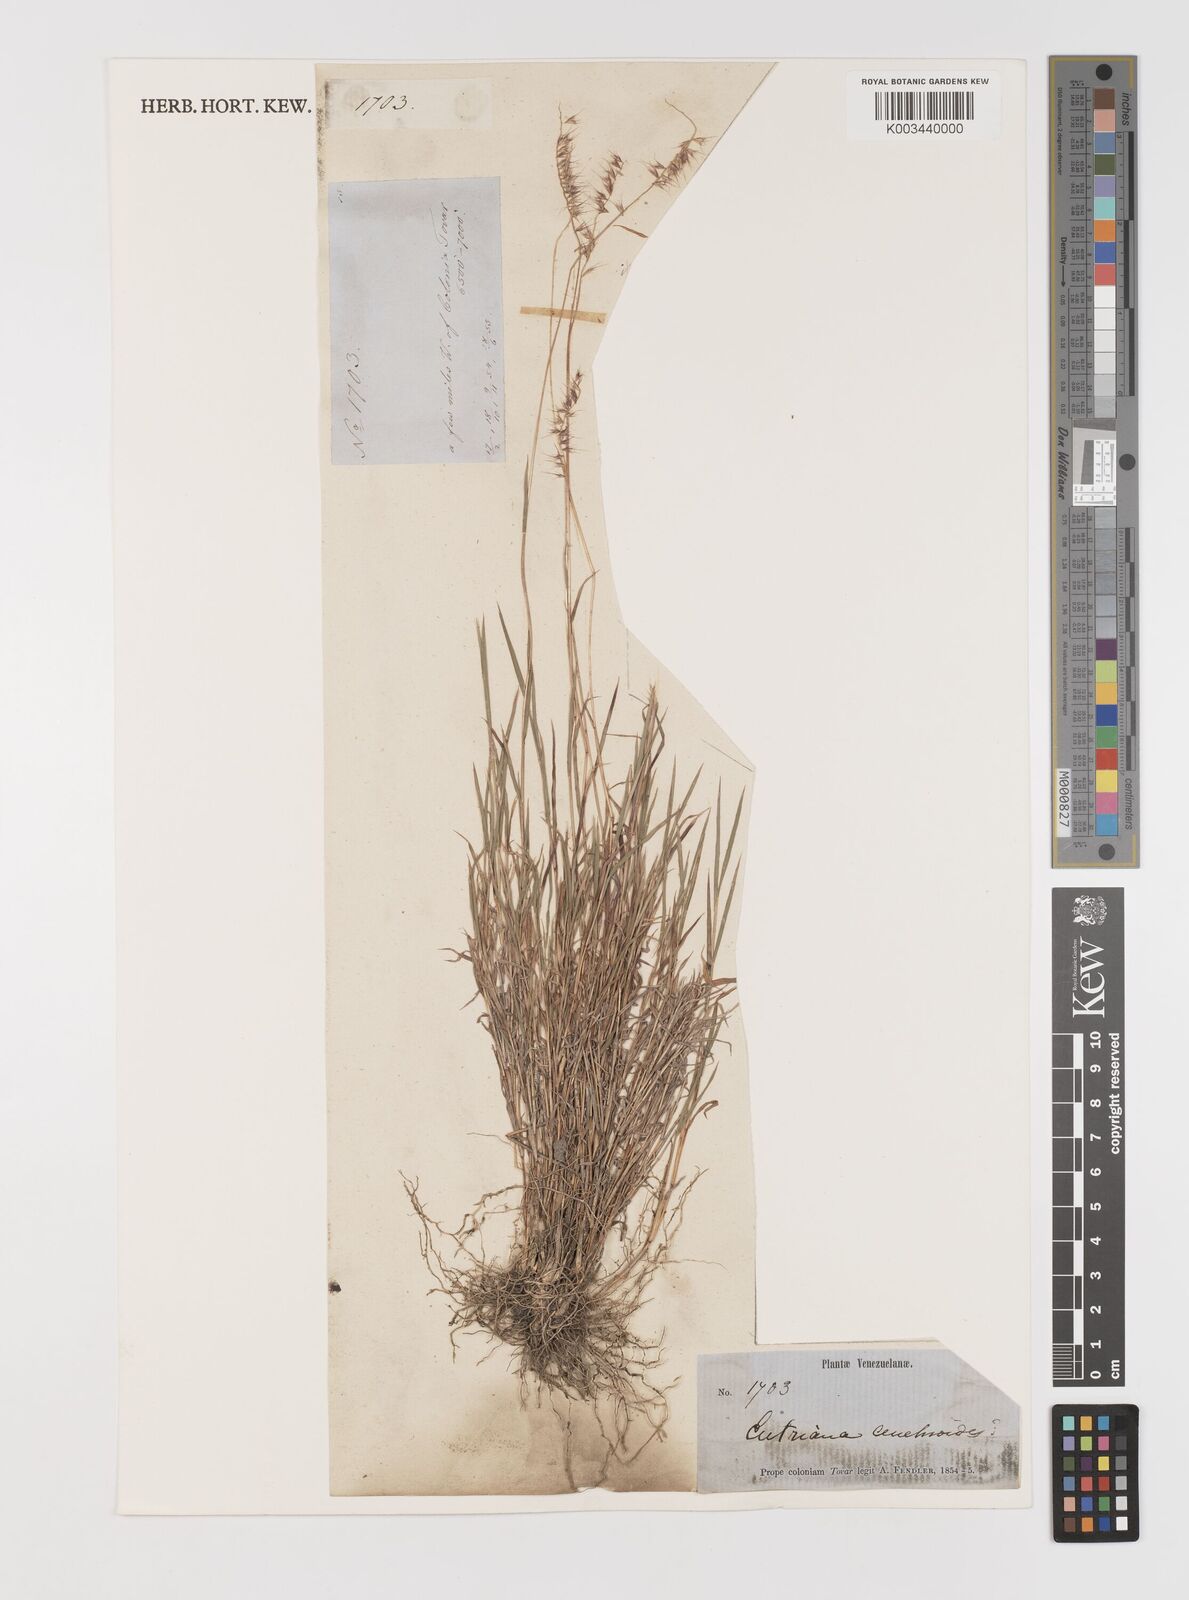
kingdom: Plantae
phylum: Tracheophyta
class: Liliopsida
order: Poales
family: Poaceae
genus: Muhlenbergia
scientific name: Muhlenbergia cenchroides
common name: Relaxgrass
